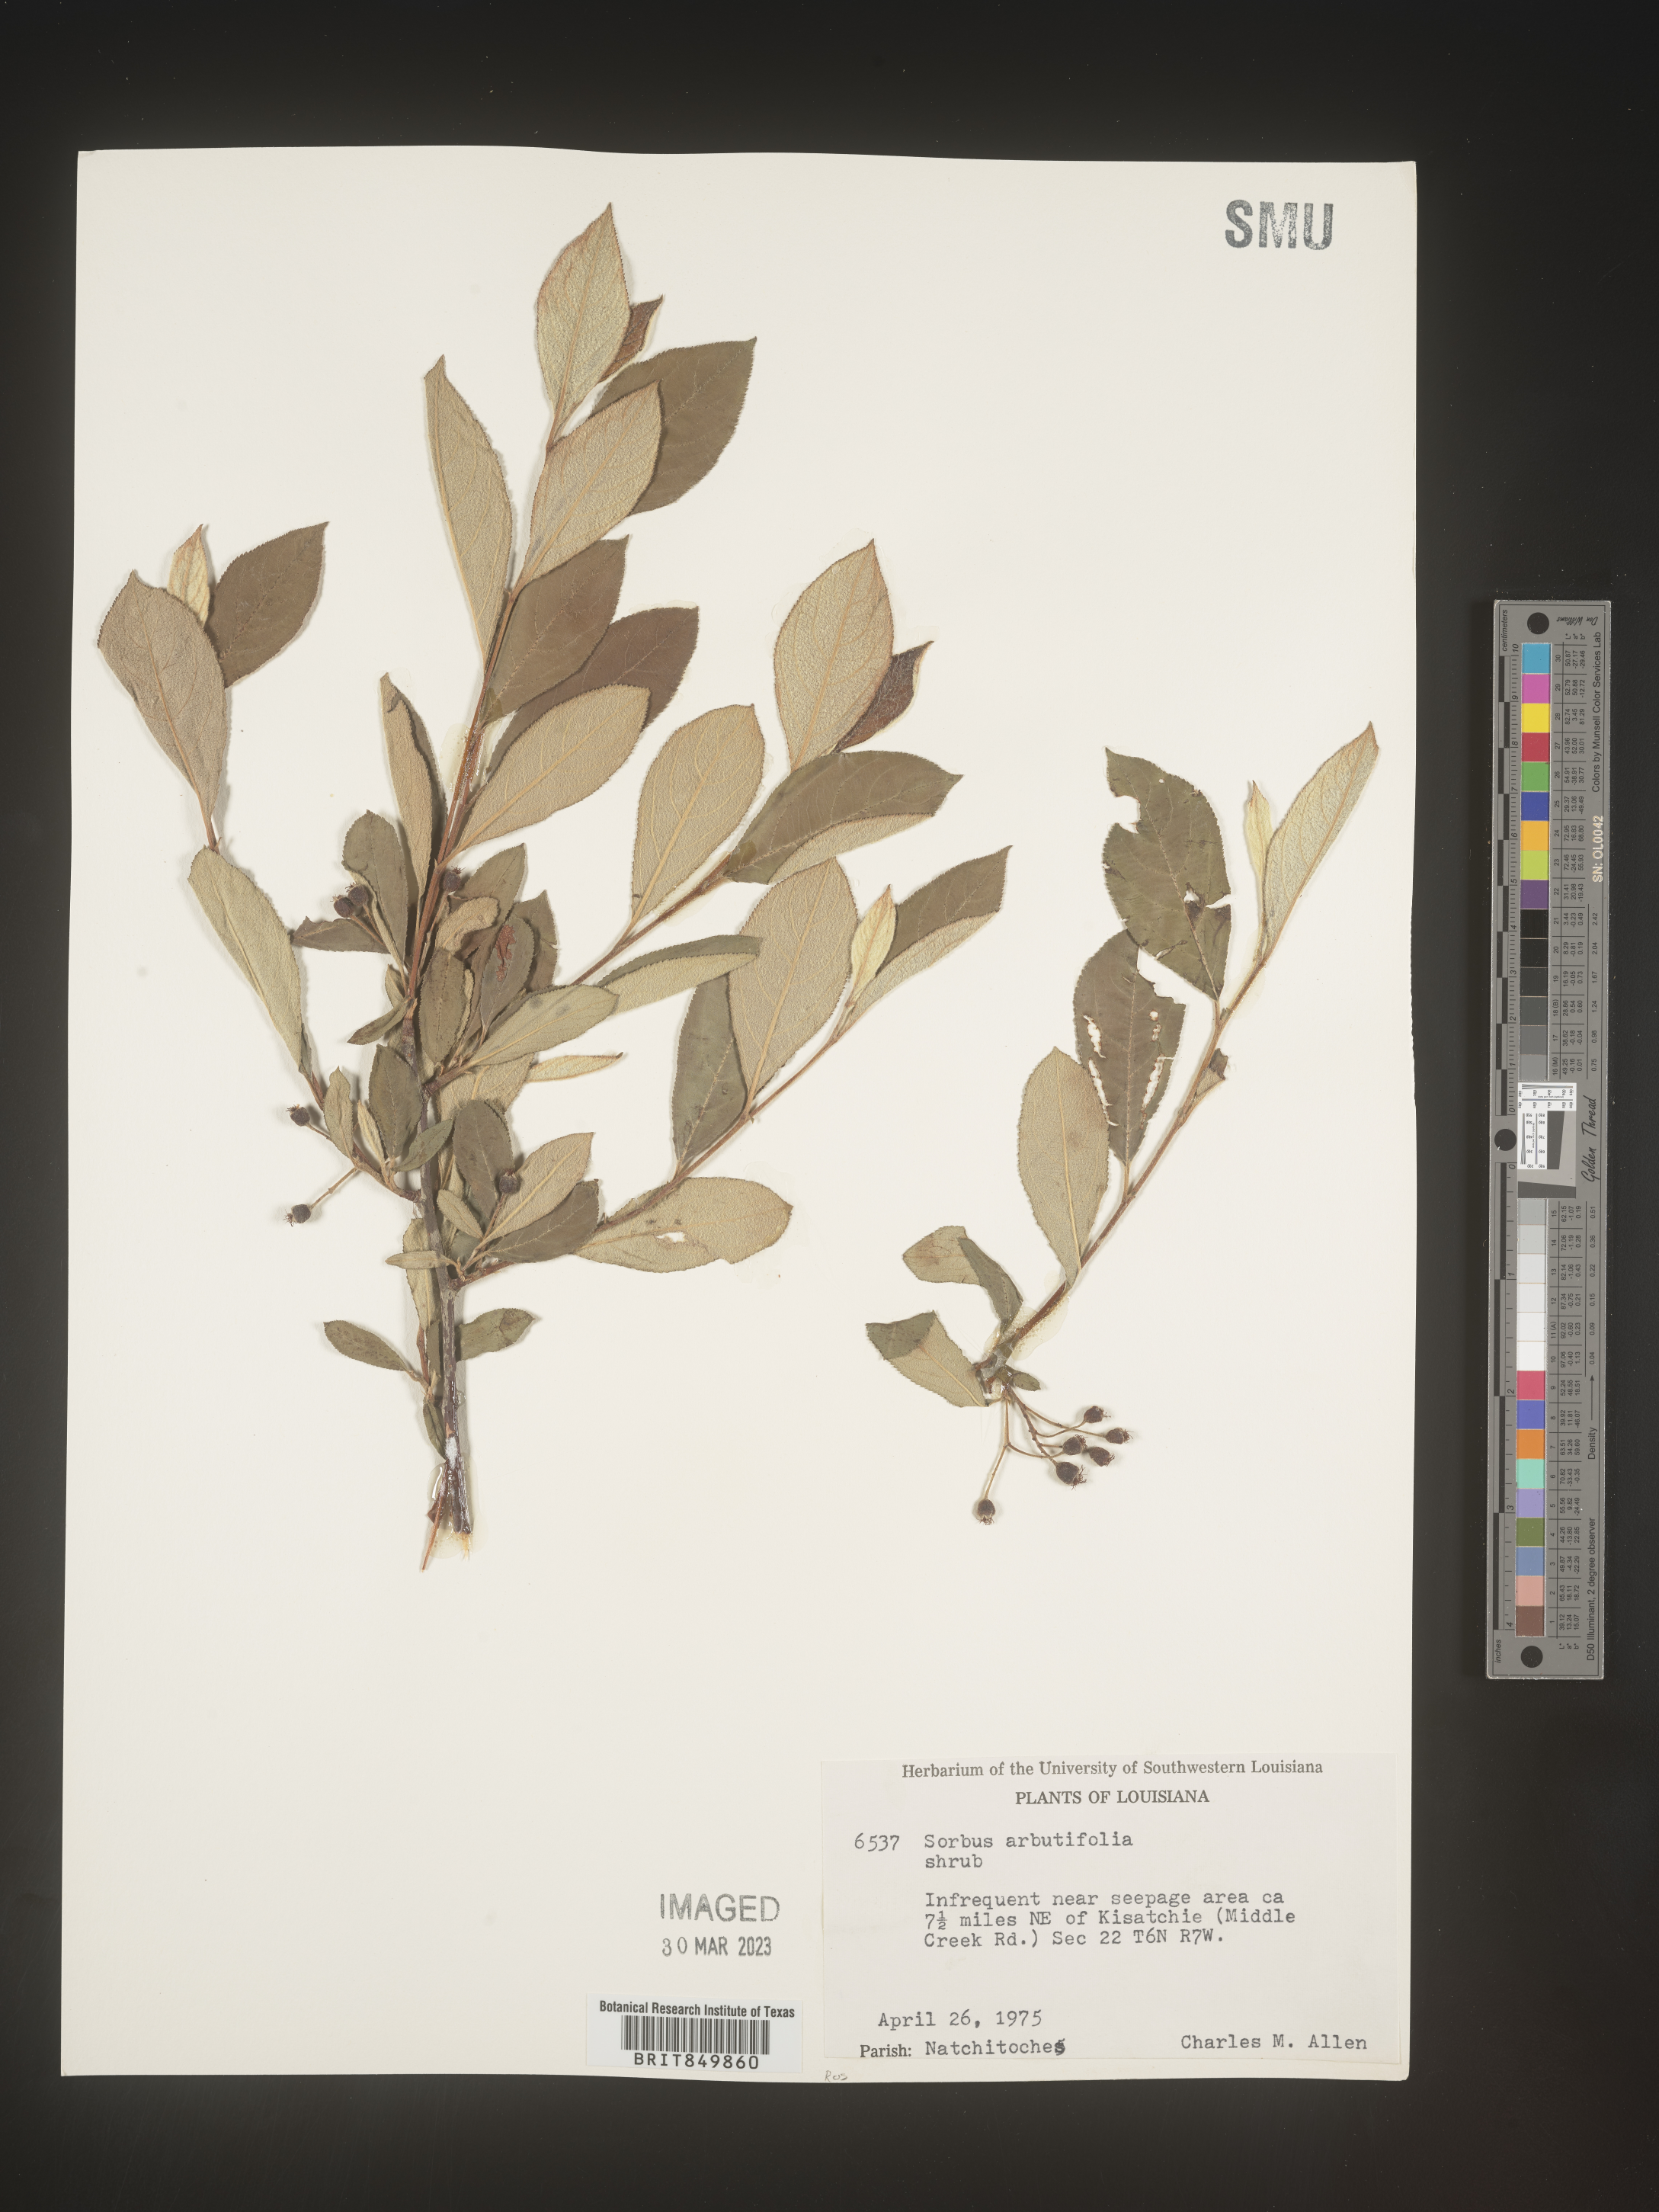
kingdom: Plantae
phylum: Tracheophyta
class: Magnoliopsida
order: Rosales
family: Rosaceae
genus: Sorbus
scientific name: Sorbus
